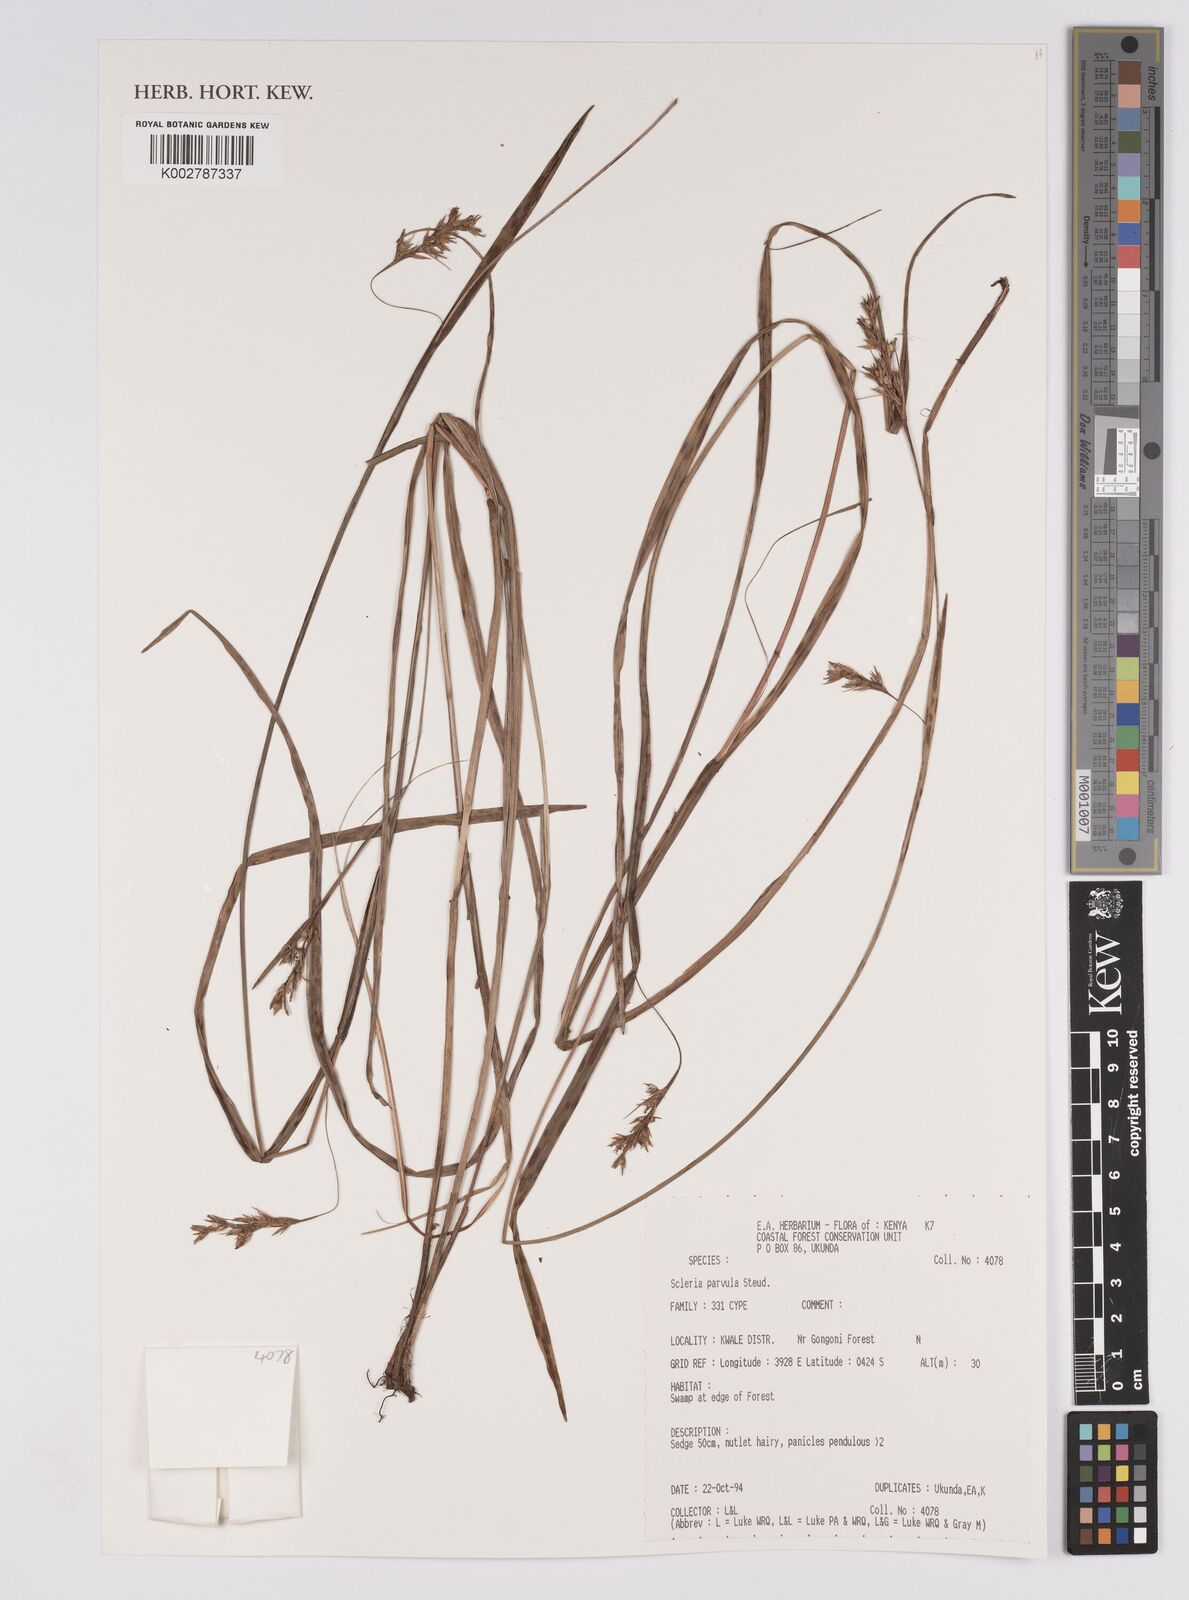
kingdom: Plantae
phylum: Tracheophyta
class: Liliopsida
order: Poales
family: Cyperaceae
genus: Scleria
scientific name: Scleria parvula
